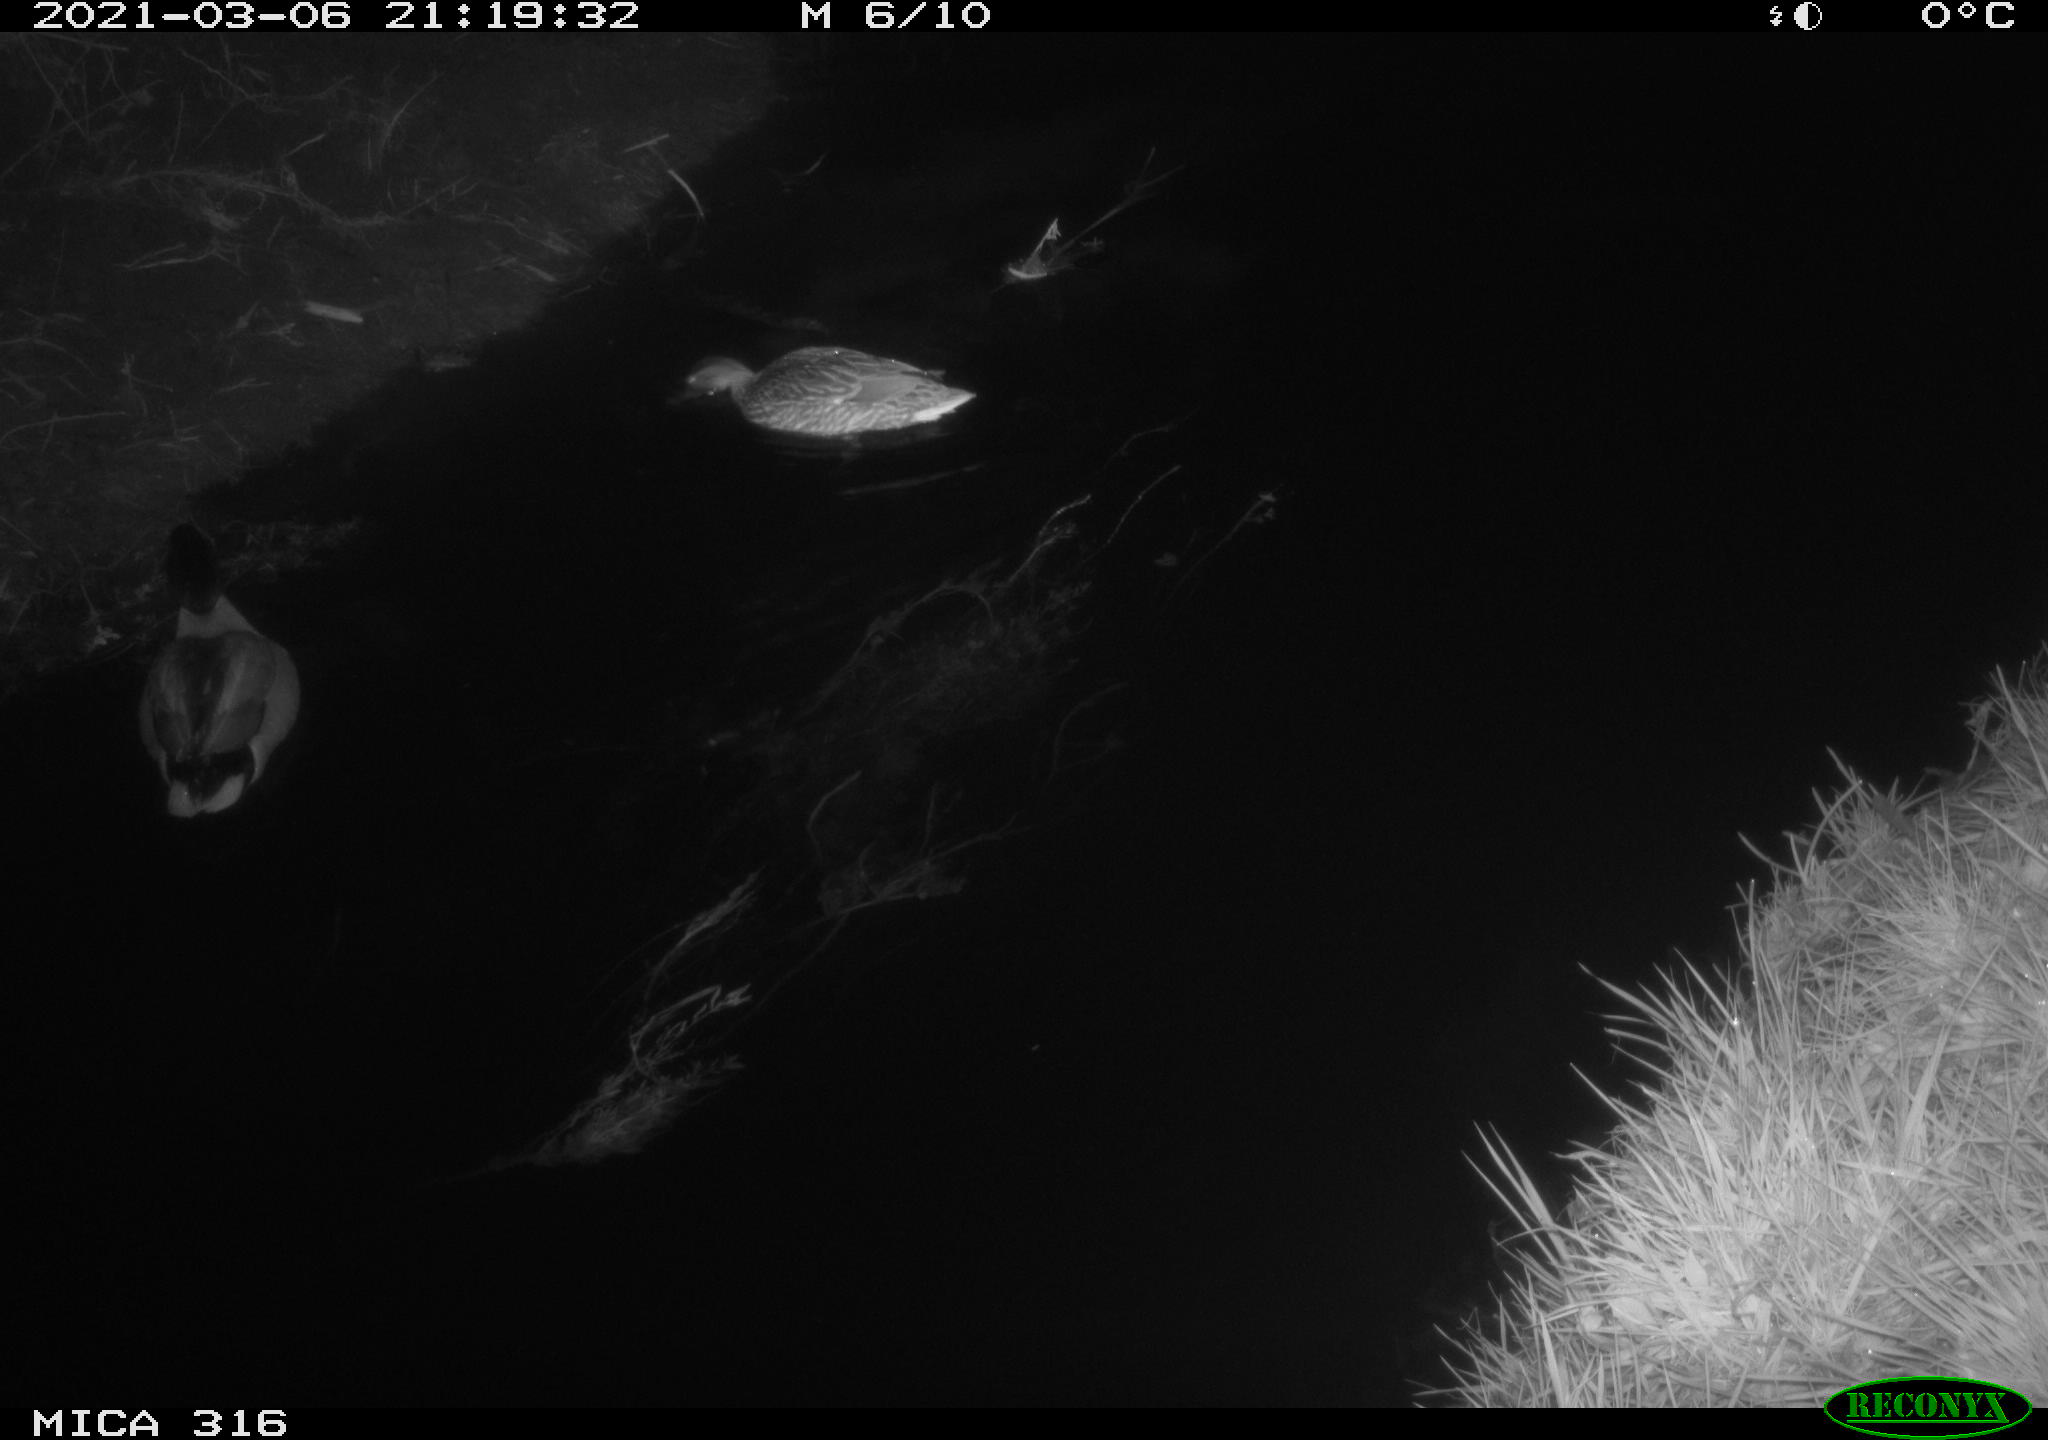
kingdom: Animalia
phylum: Chordata
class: Aves
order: Anseriformes
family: Anatidae
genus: Anas
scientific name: Anas platyrhynchos
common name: Mallard
